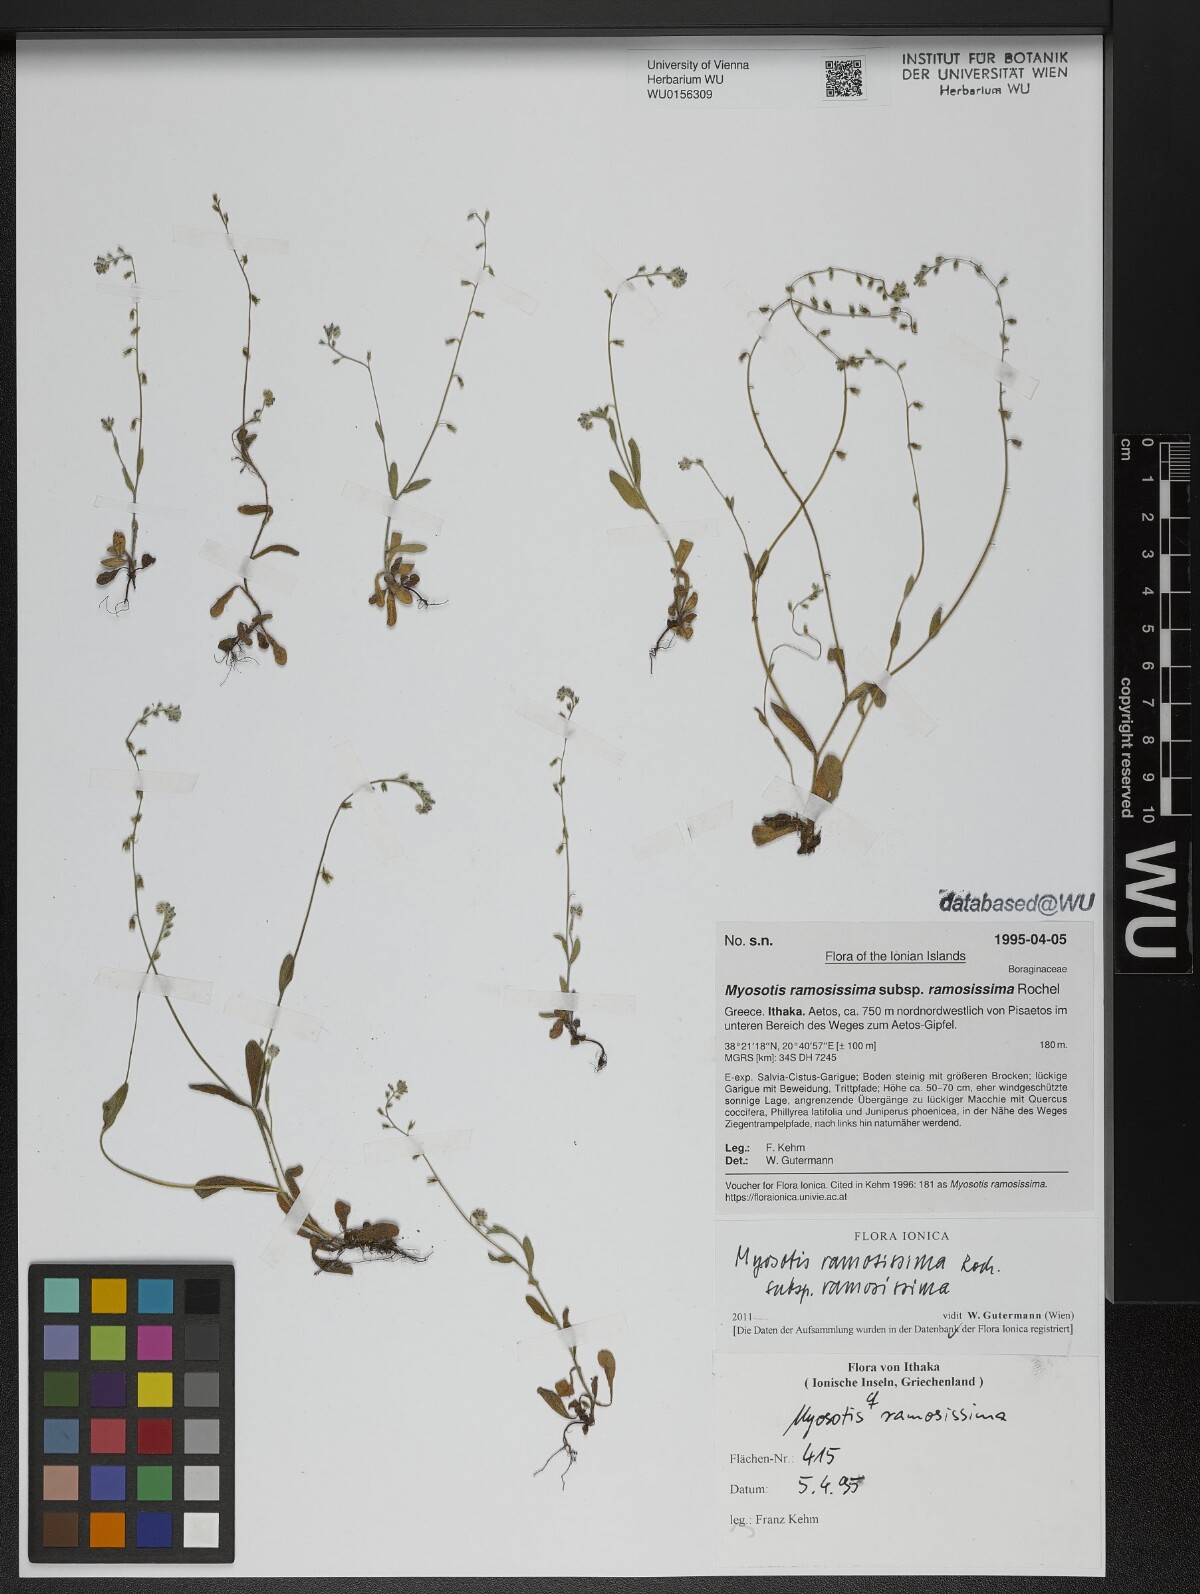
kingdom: Plantae
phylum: Tracheophyta
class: Magnoliopsida
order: Boraginales
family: Boraginaceae
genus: Myosotis
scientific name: Myosotis ramosissima
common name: Early forget-me-not
